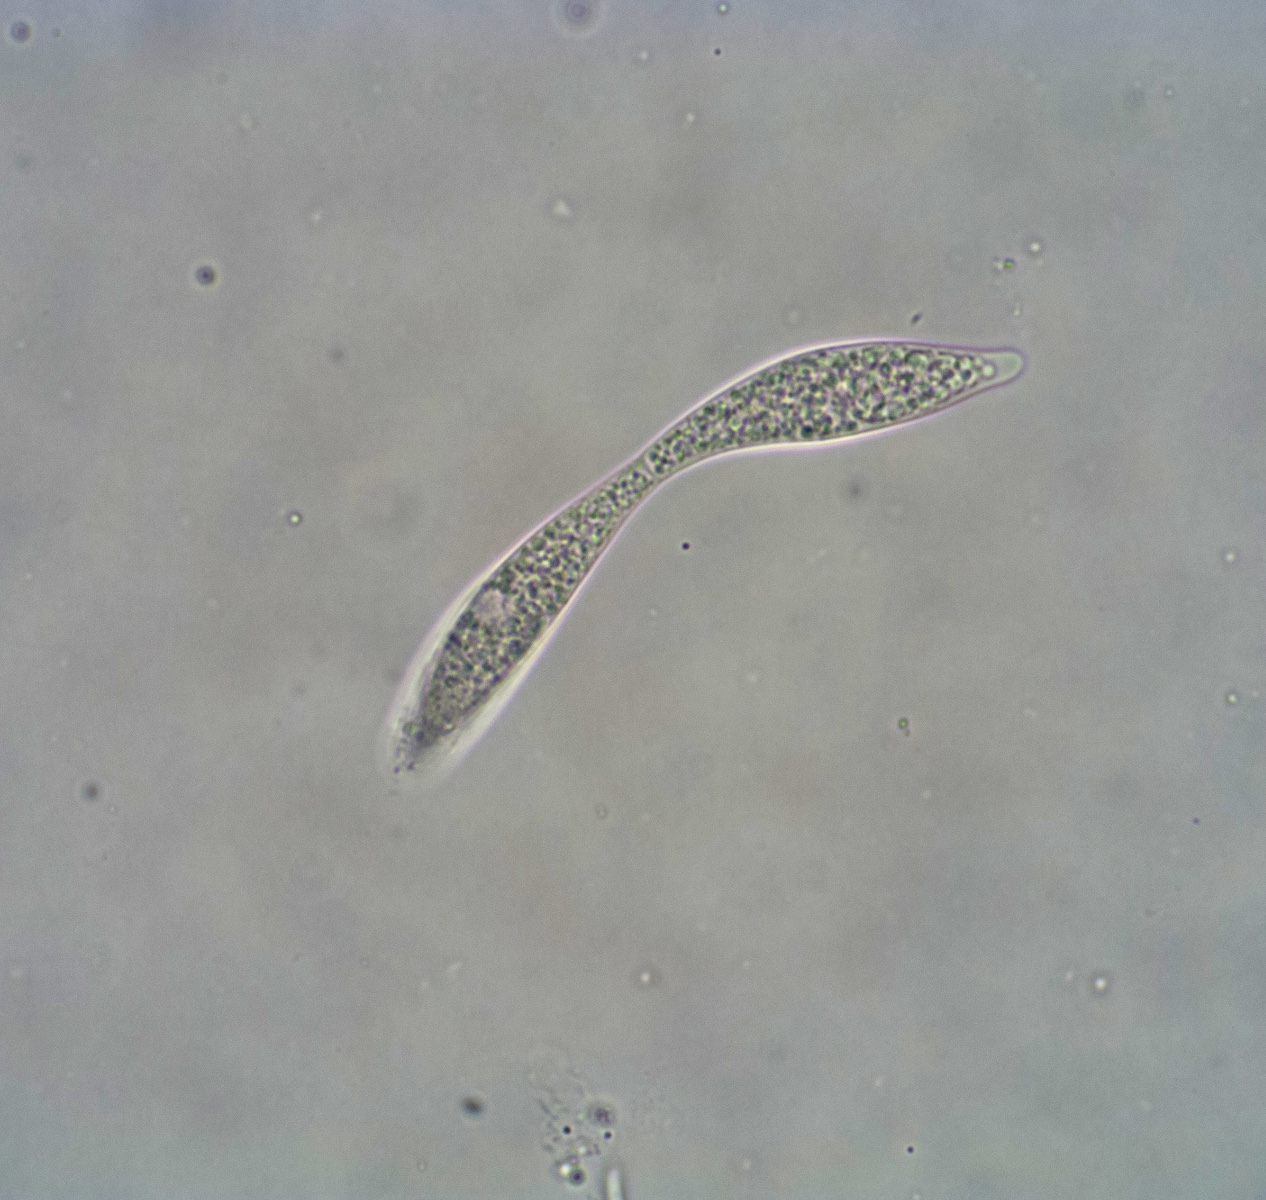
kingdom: Fungi
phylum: Ascomycota
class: Sordariomycetes
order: Xylariales
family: Vialaeaceae
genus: Vialaea
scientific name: Vialaea insculpta
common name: kristtornkerne
